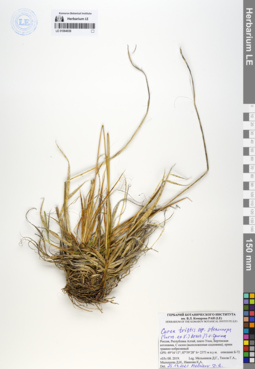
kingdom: Plantae
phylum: Tracheophyta
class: Liliopsida
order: Poales
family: Cyperaceae
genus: Carex
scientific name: Carex stenocarpa
